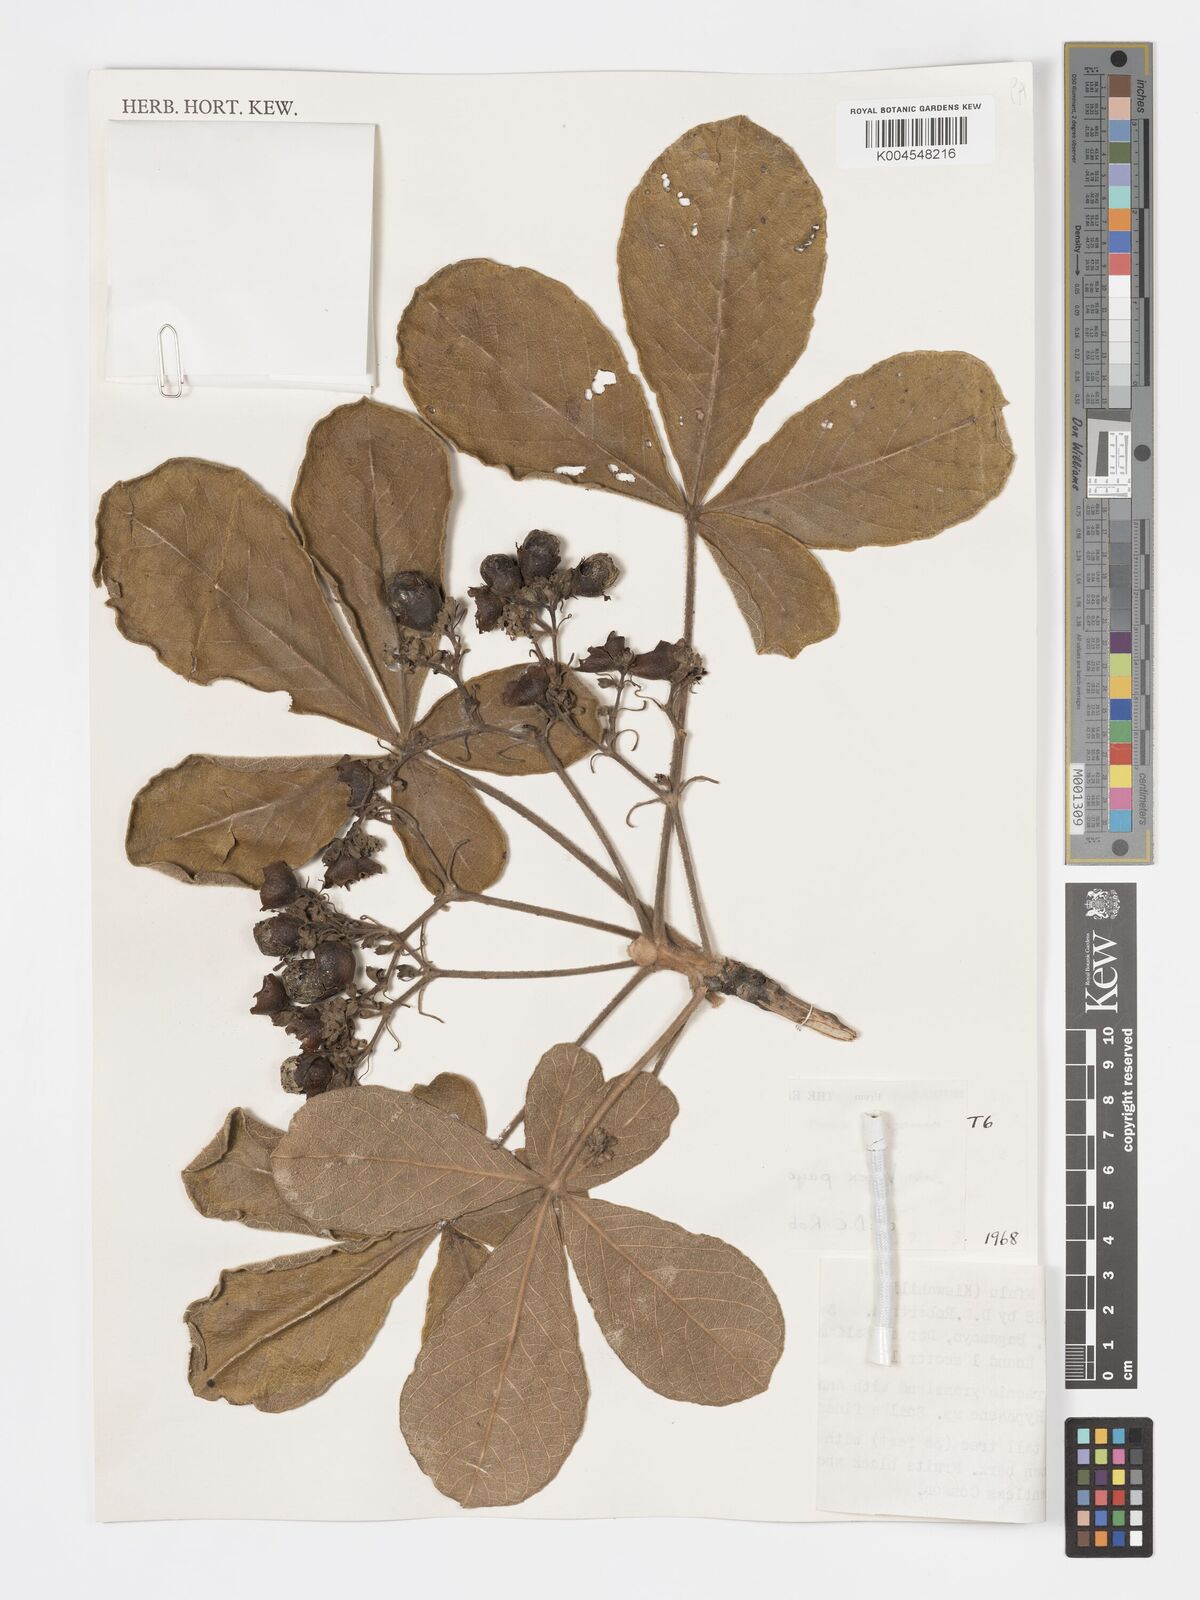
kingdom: Plantae
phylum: Tracheophyta
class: Magnoliopsida
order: Lamiales
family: Lamiaceae
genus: Vitex
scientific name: Vitex payos
